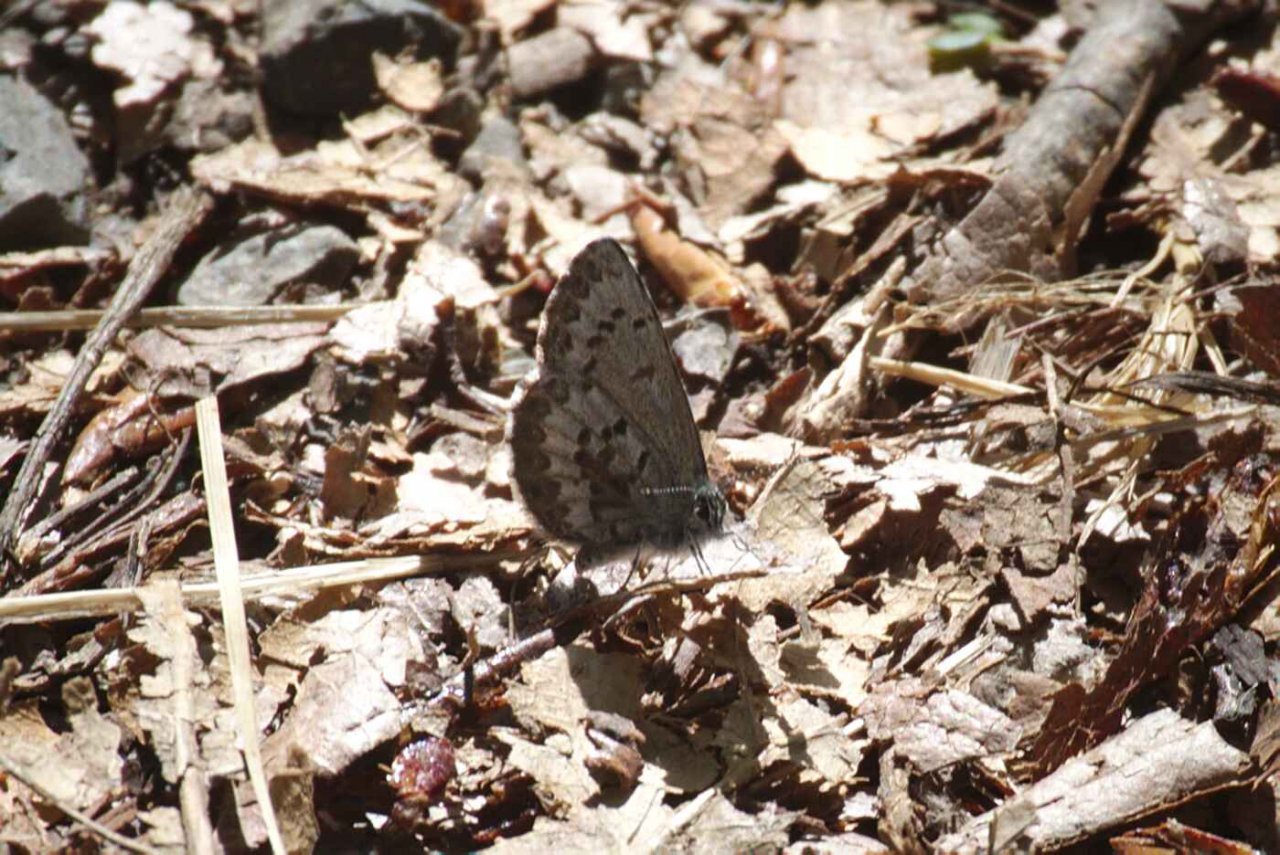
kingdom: Animalia
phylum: Arthropoda
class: Insecta
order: Lepidoptera
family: Lycaenidae
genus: Celastrina
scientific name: Celastrina lucia
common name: Northern Spring Azure
